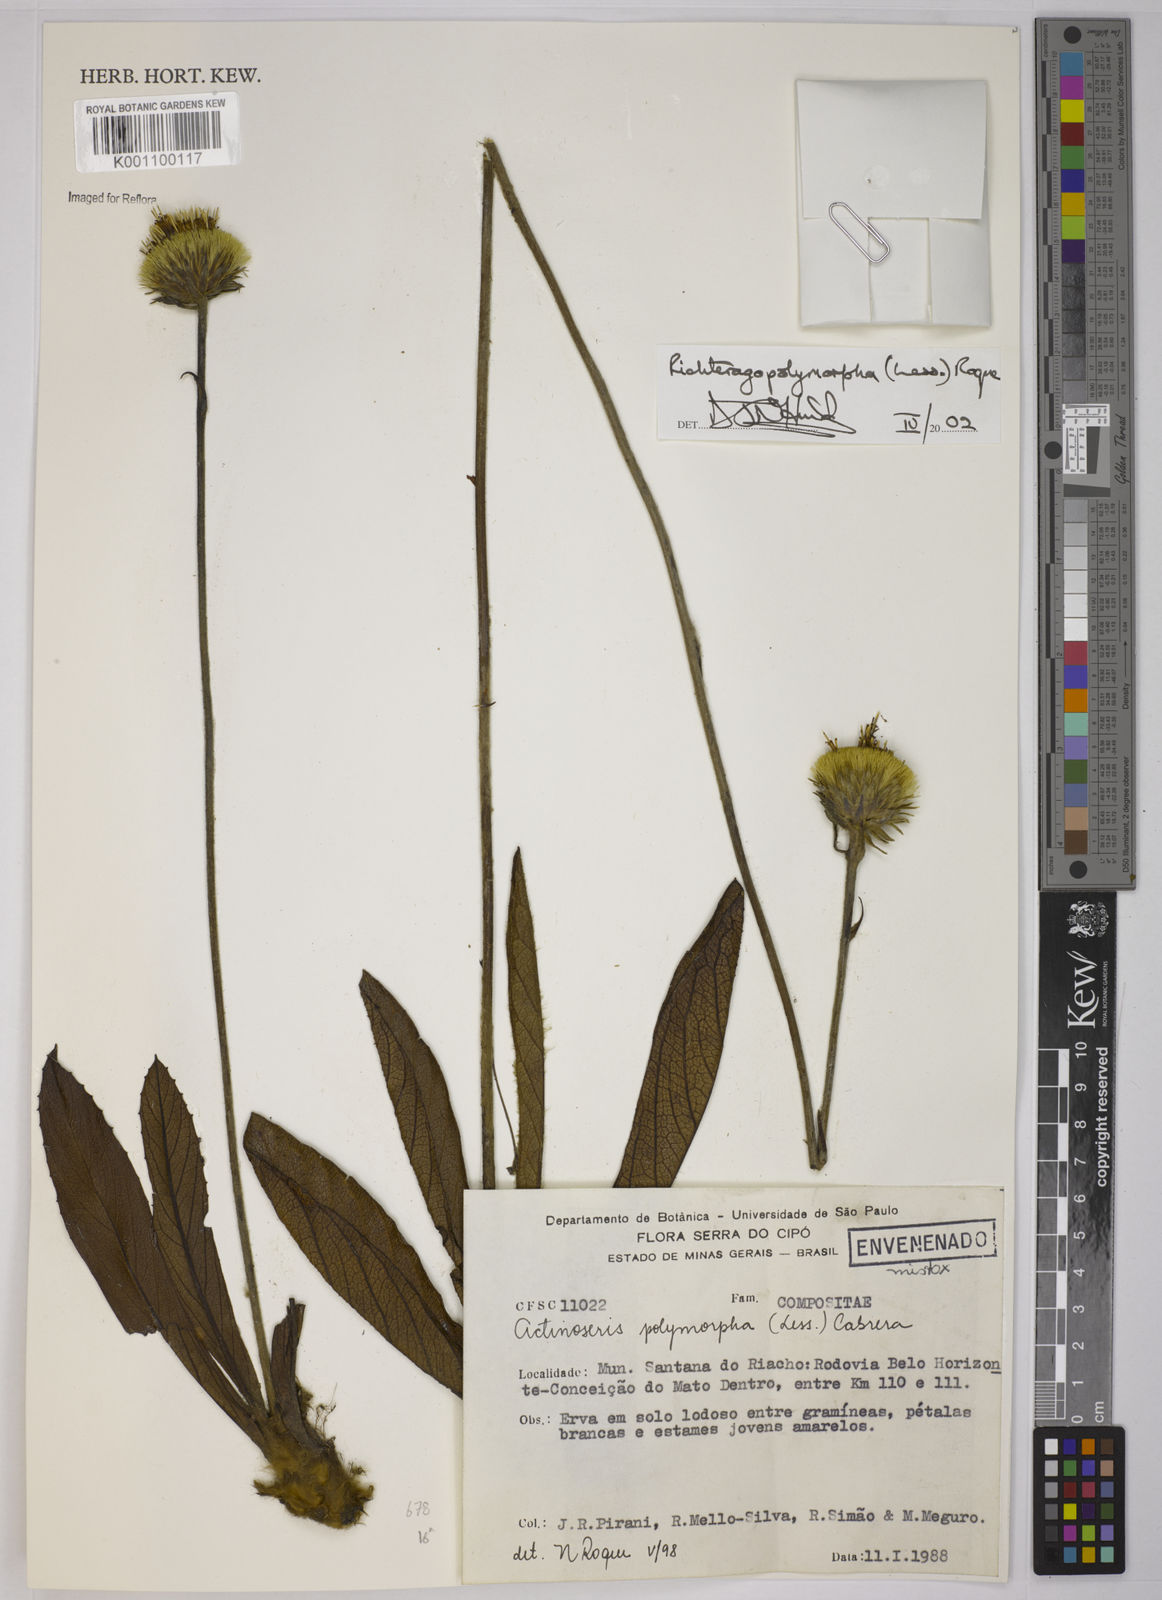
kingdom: Plantae
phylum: Tracheophyta
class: Magnoliopsida
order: Asterales
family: Asteraceae
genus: Richterago
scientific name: Richterago polymorpha
